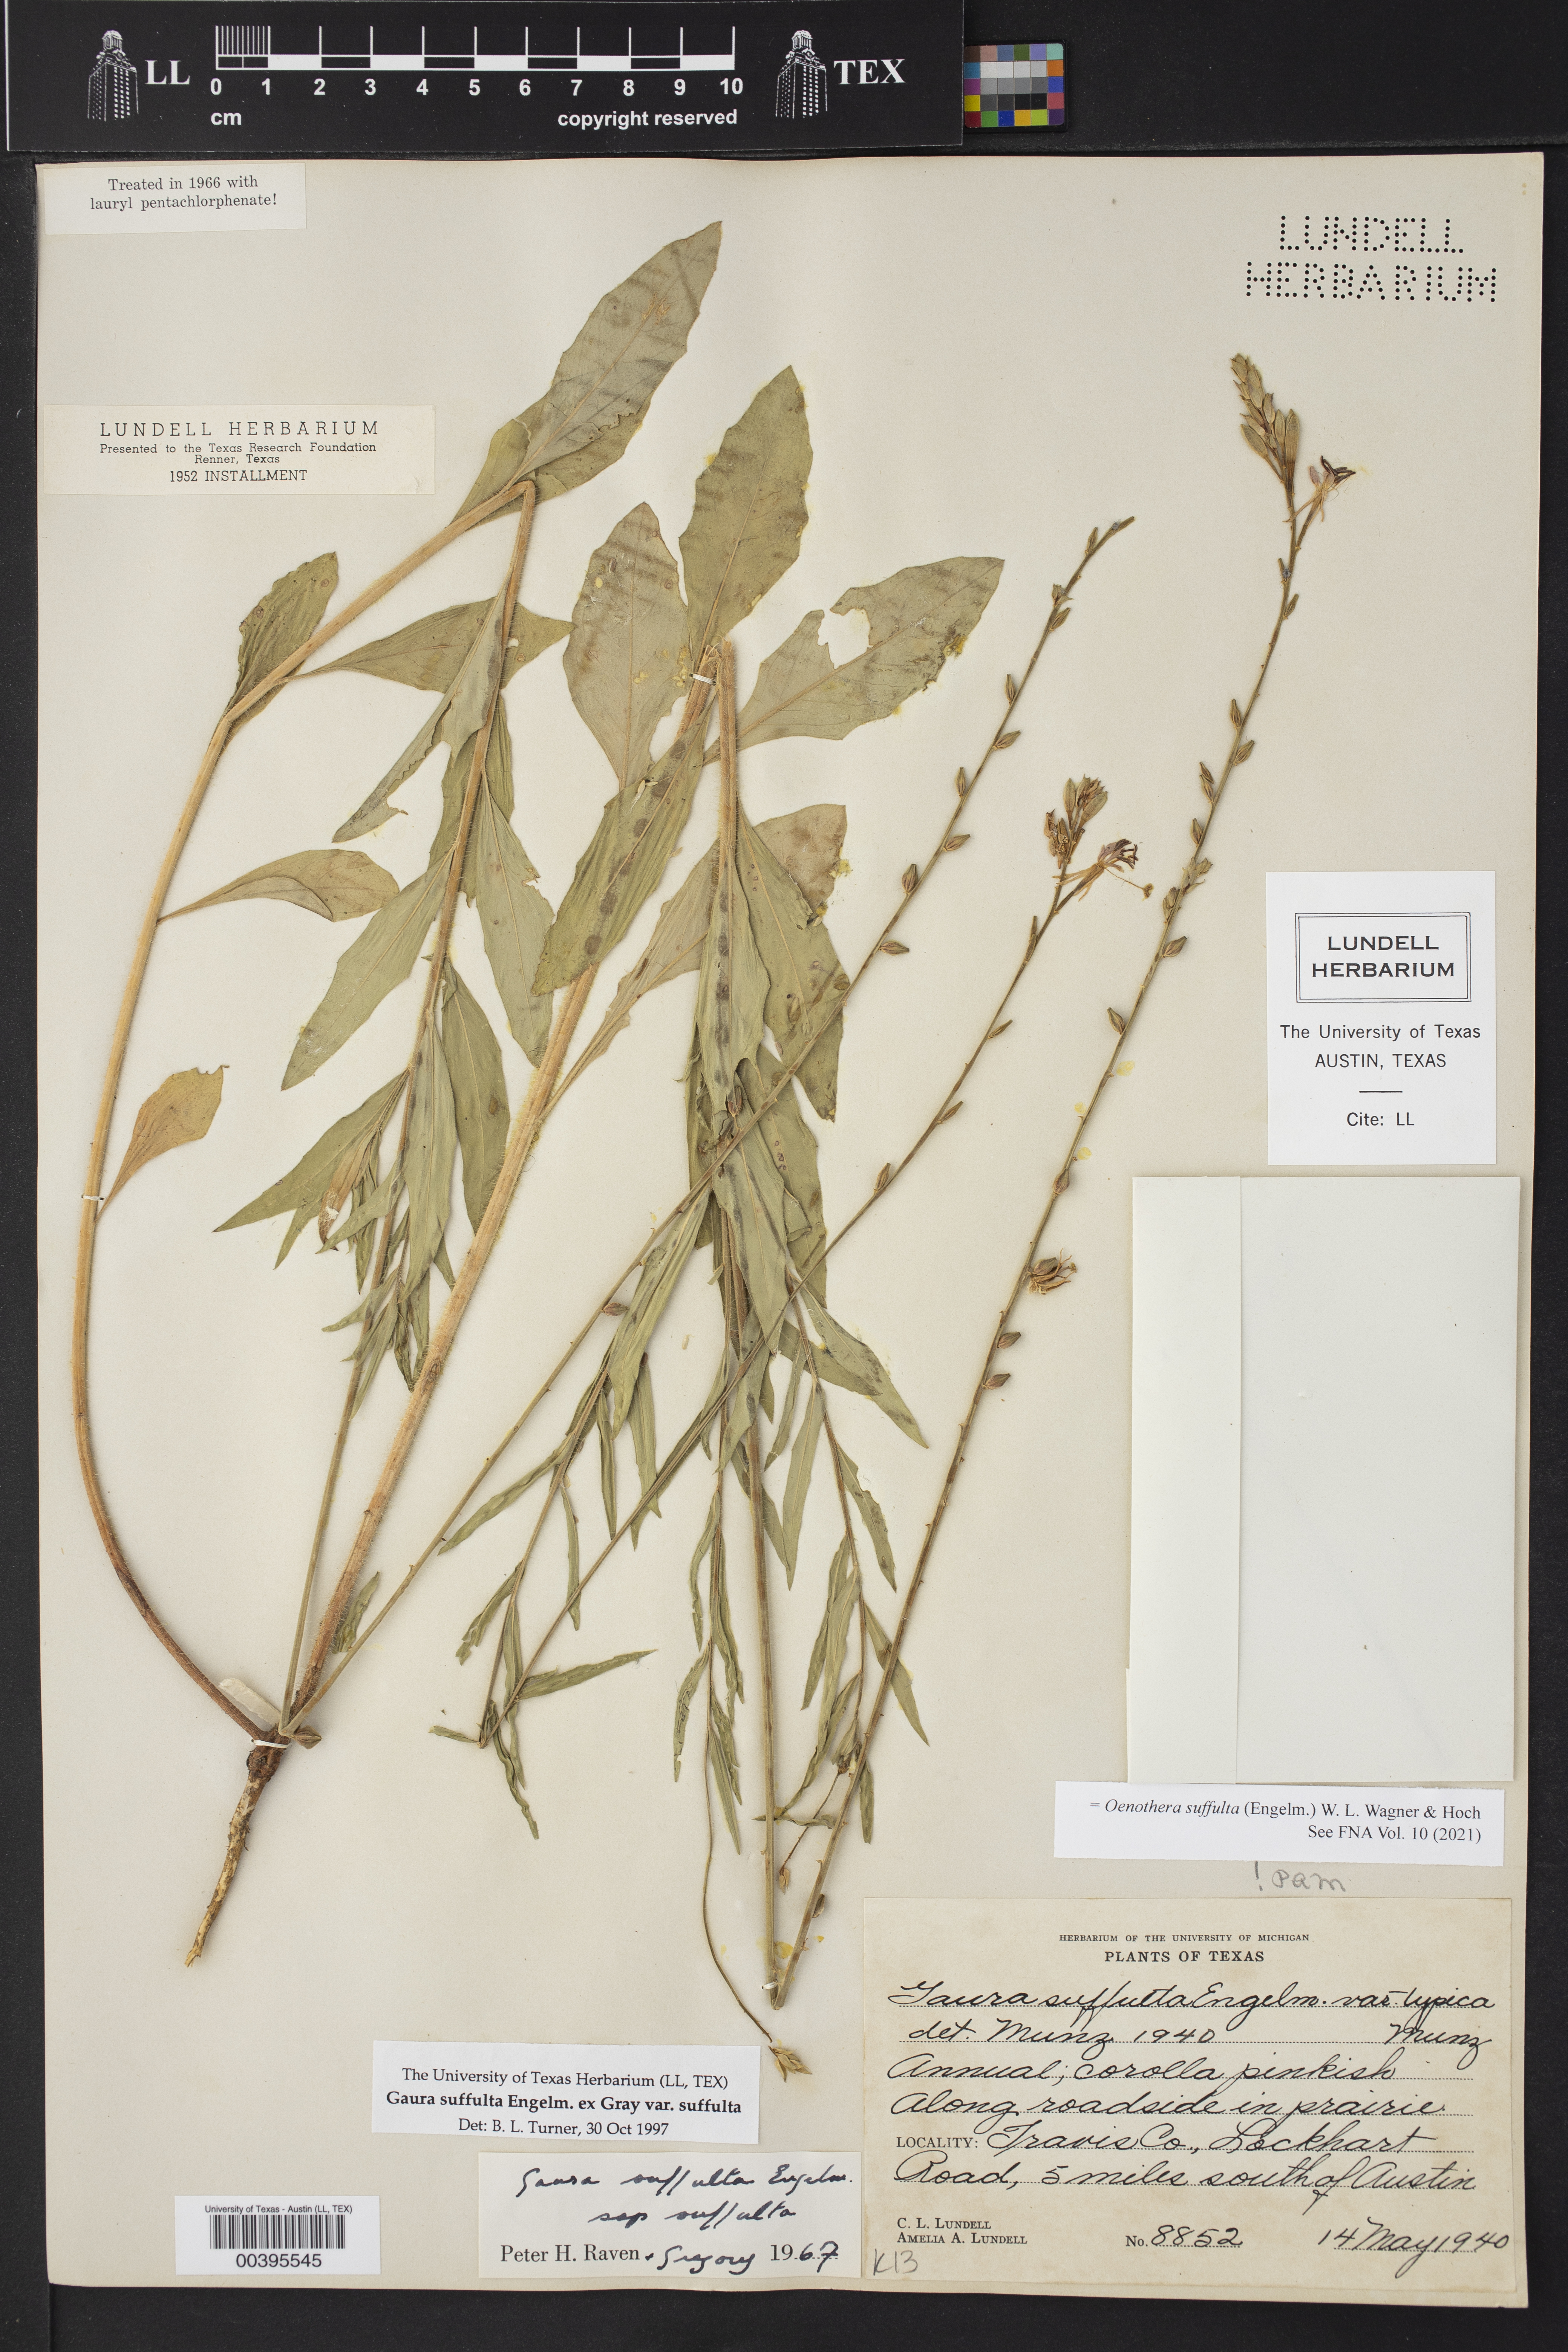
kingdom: Plantae
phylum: Tracheophyta
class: Magnoliopsida
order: Myrtales
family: Onagraceae
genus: Oenothera
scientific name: Oenothera suffulta
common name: Kisses
